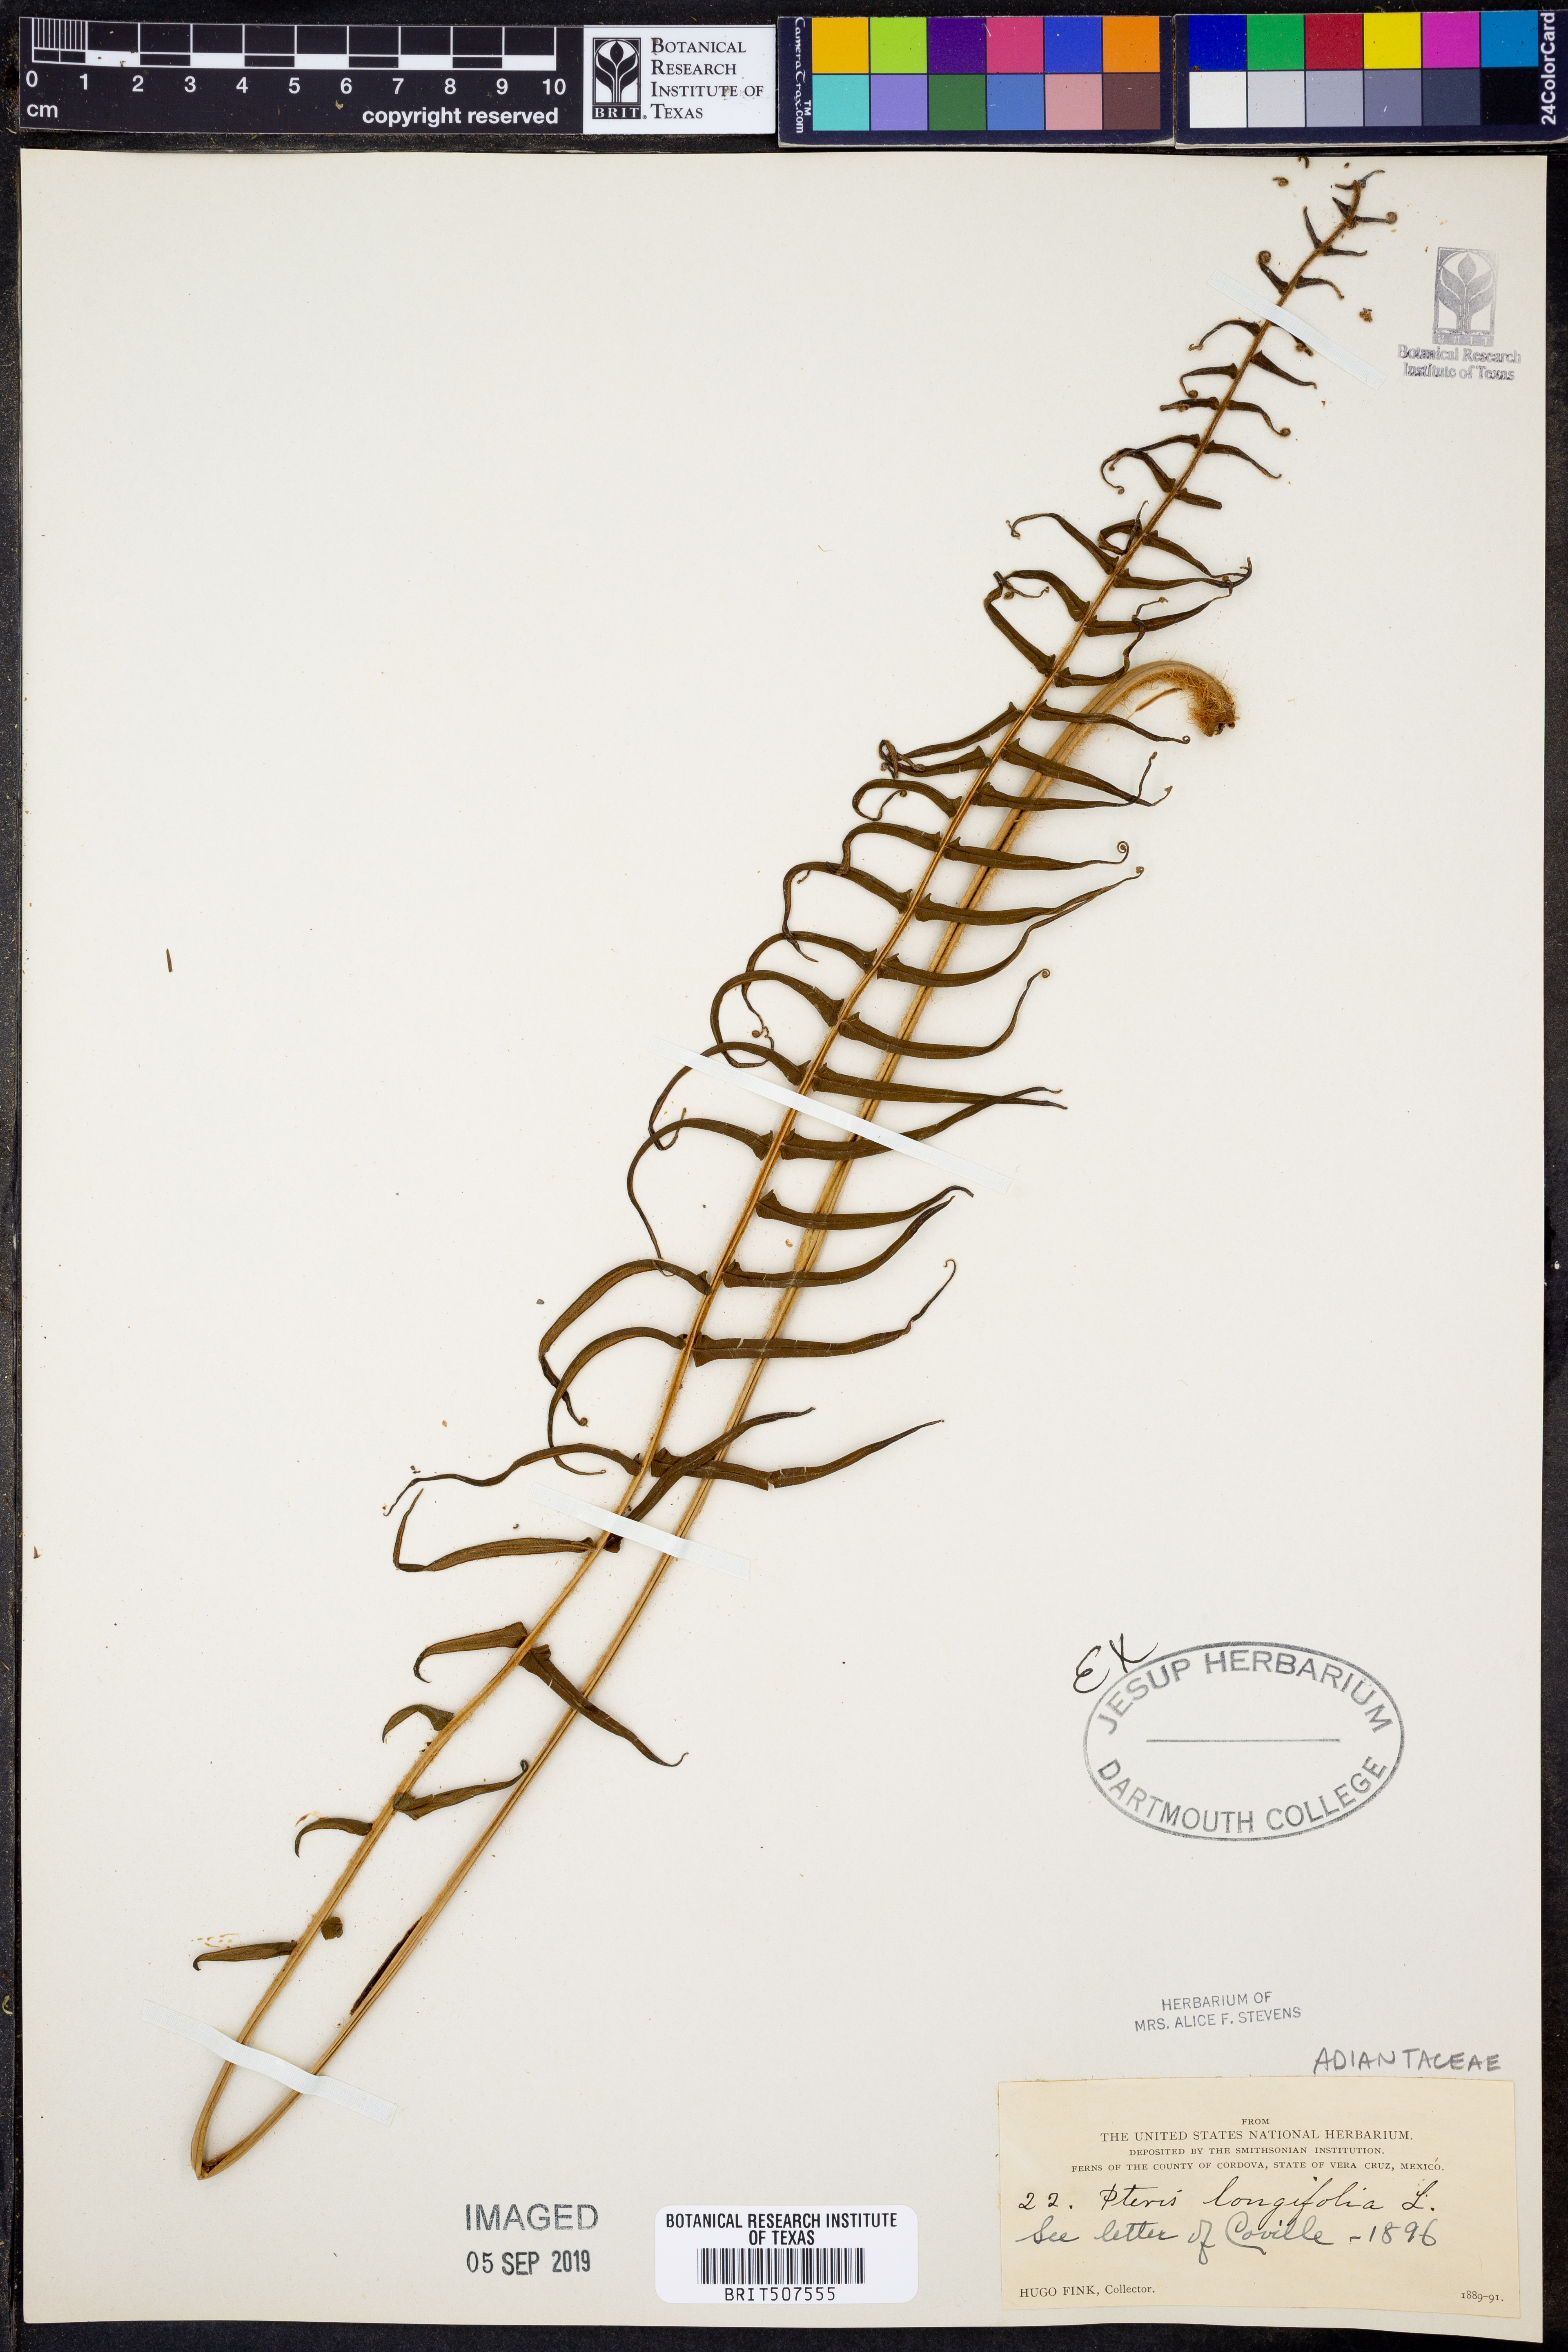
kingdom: Plantae
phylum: Tracheophyta
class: Polypodiopsida
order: Polypodiales
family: Pteridaceae
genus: Pteris
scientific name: Pteris longifolia
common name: Longleaf brake
